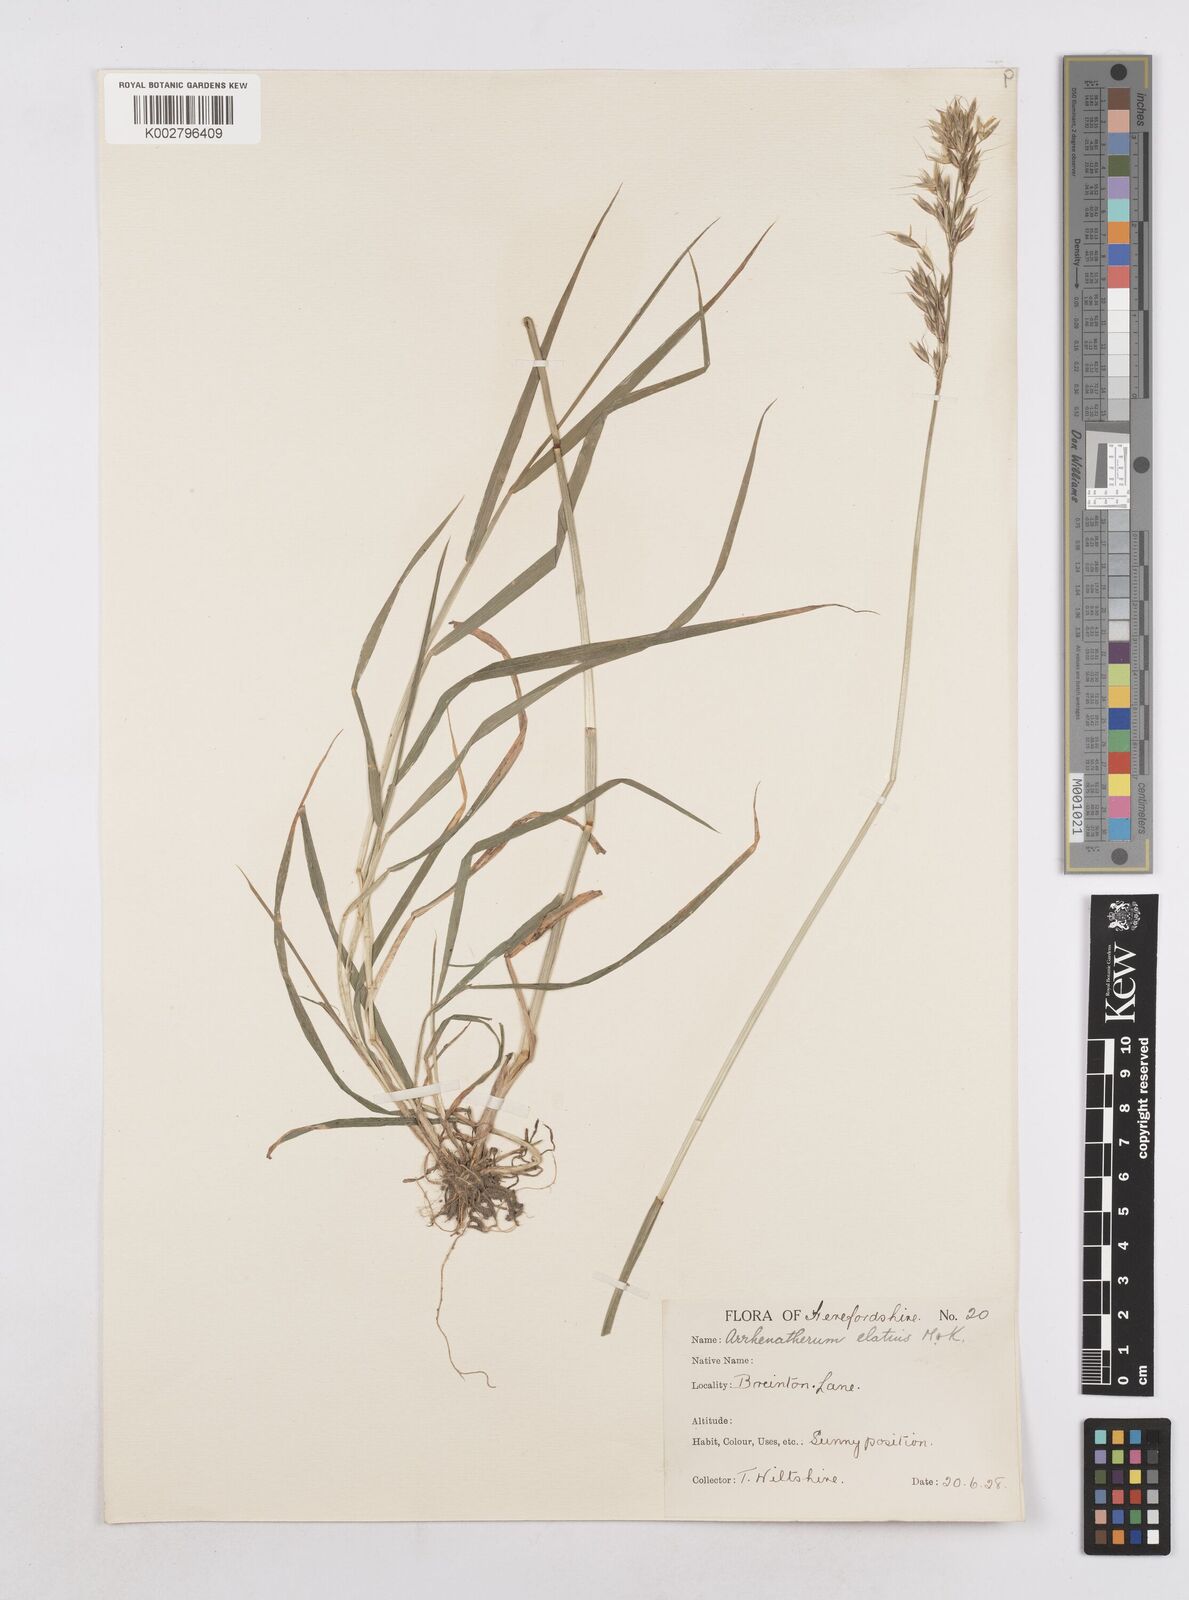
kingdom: Plantae
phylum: Tracheophyta
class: Liliopsida
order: Poales
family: Poaceae
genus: Arrhenatherum
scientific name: Arrhenatherum elatius
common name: Tall oatgrass
